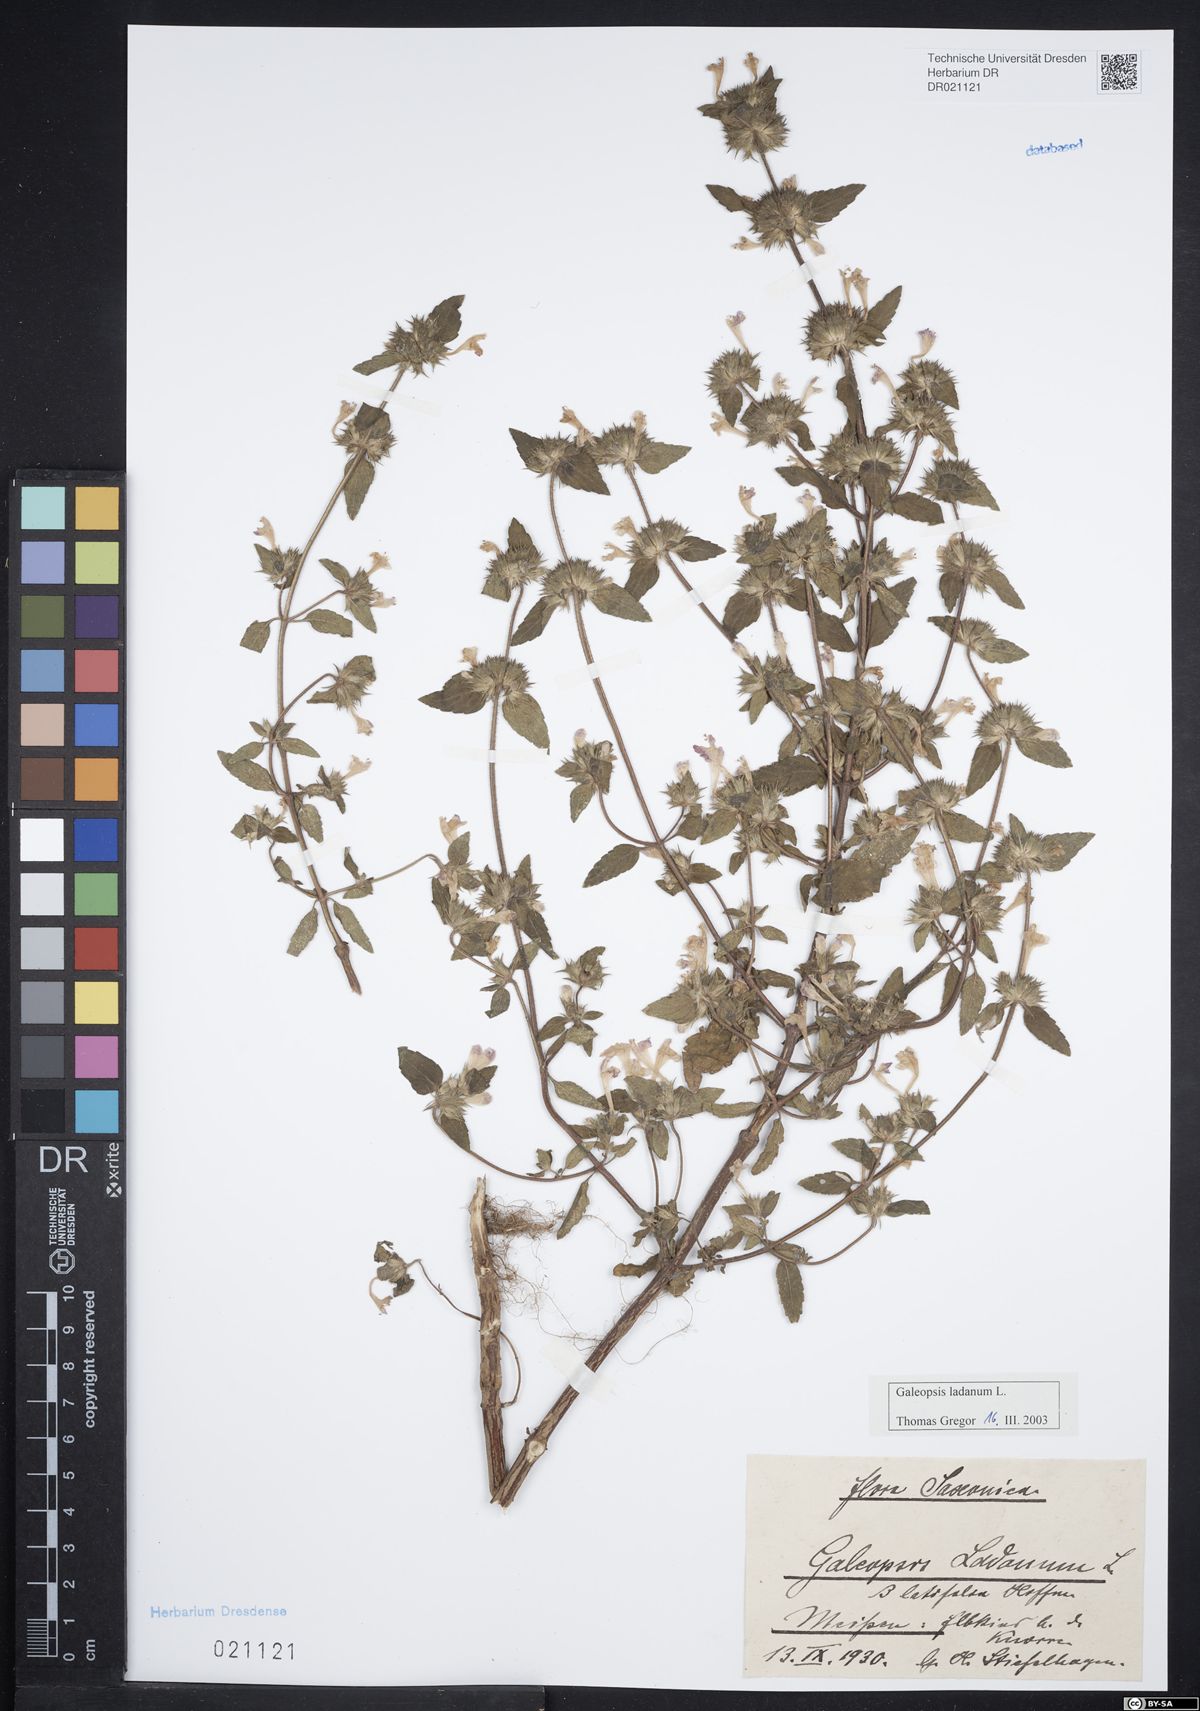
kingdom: Plantae
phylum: Tracheophyta
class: Magnoliopsida
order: Lamiales
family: Lamiaceae
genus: Galeopsis
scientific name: Galeopsis ladanum
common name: Broad-leaved hemp-nettle
